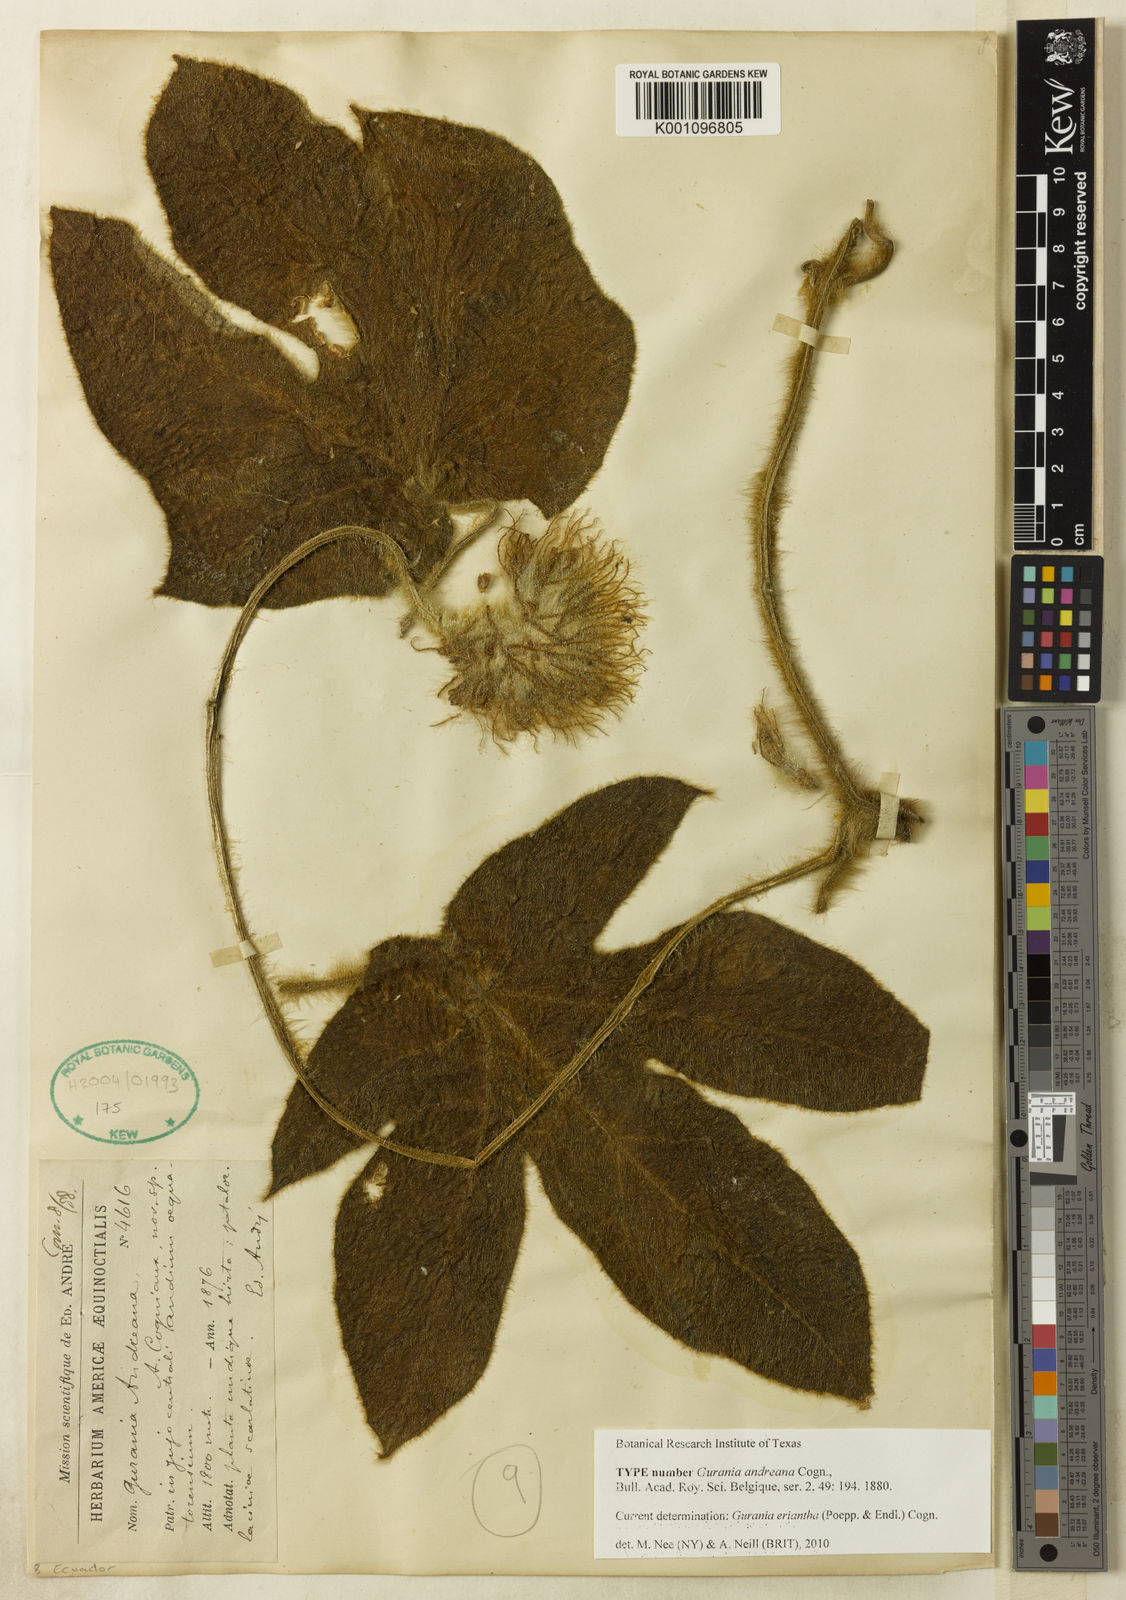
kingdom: Plantae
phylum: Tracheophyta
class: Magnoliopsida
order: Cucurbitales
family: Cucurbitaceae
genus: Gurania
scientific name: Gurania eriantha
